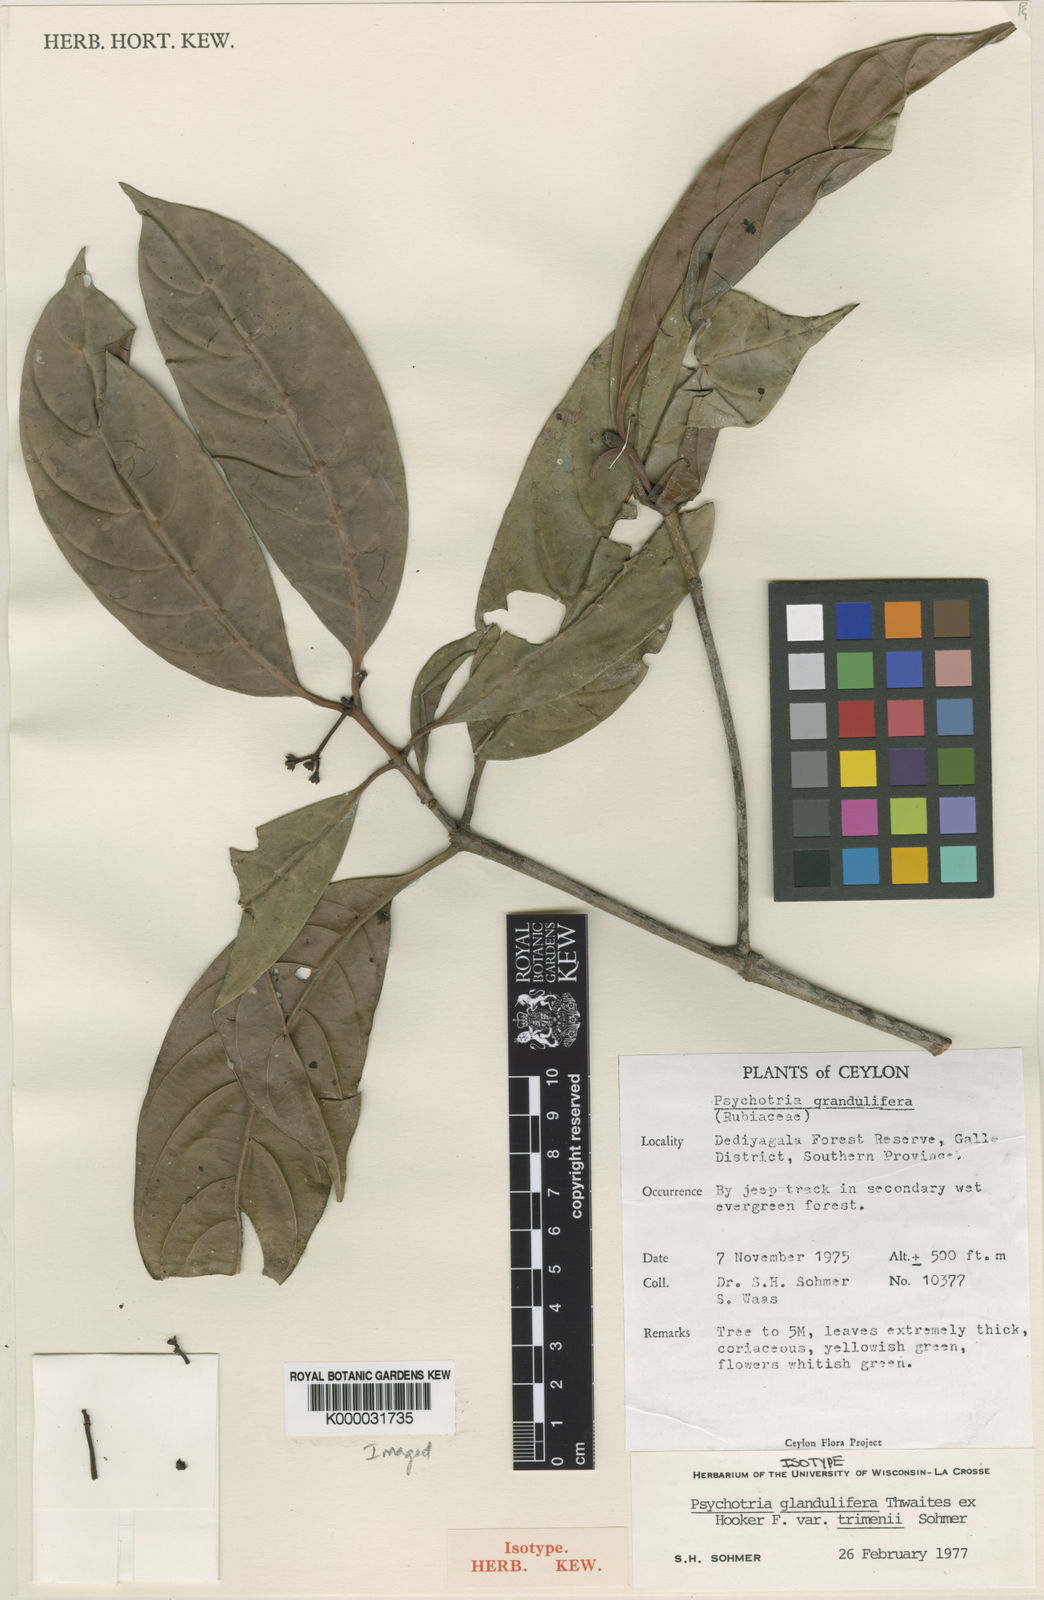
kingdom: Plantae
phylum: Tracheophyta
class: Magnoliopsida
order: Gentianales
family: Rubiaceae
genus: Psychotria
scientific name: Psychotria glandulifera
